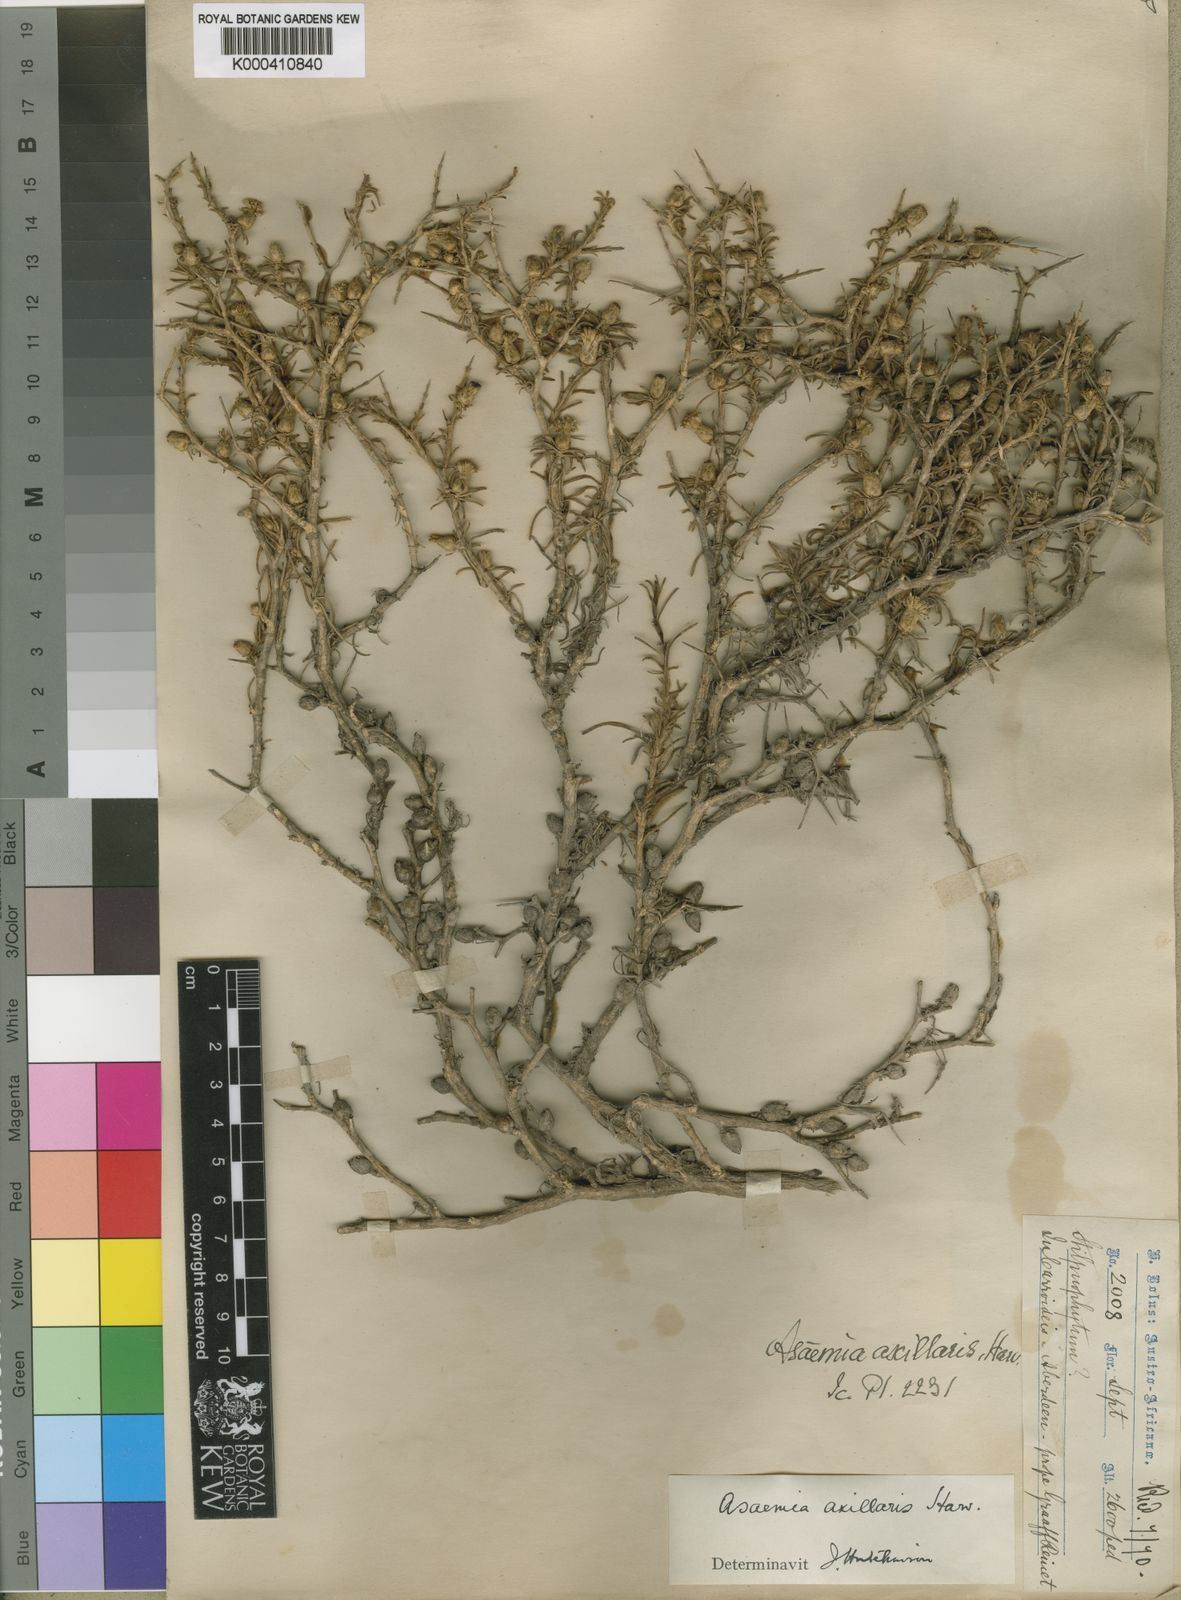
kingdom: Plantae
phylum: Tracheophyta
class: Magnoliopsida
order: Asterales
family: Asteraceae
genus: Athanasia
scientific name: Athanasia minuta
